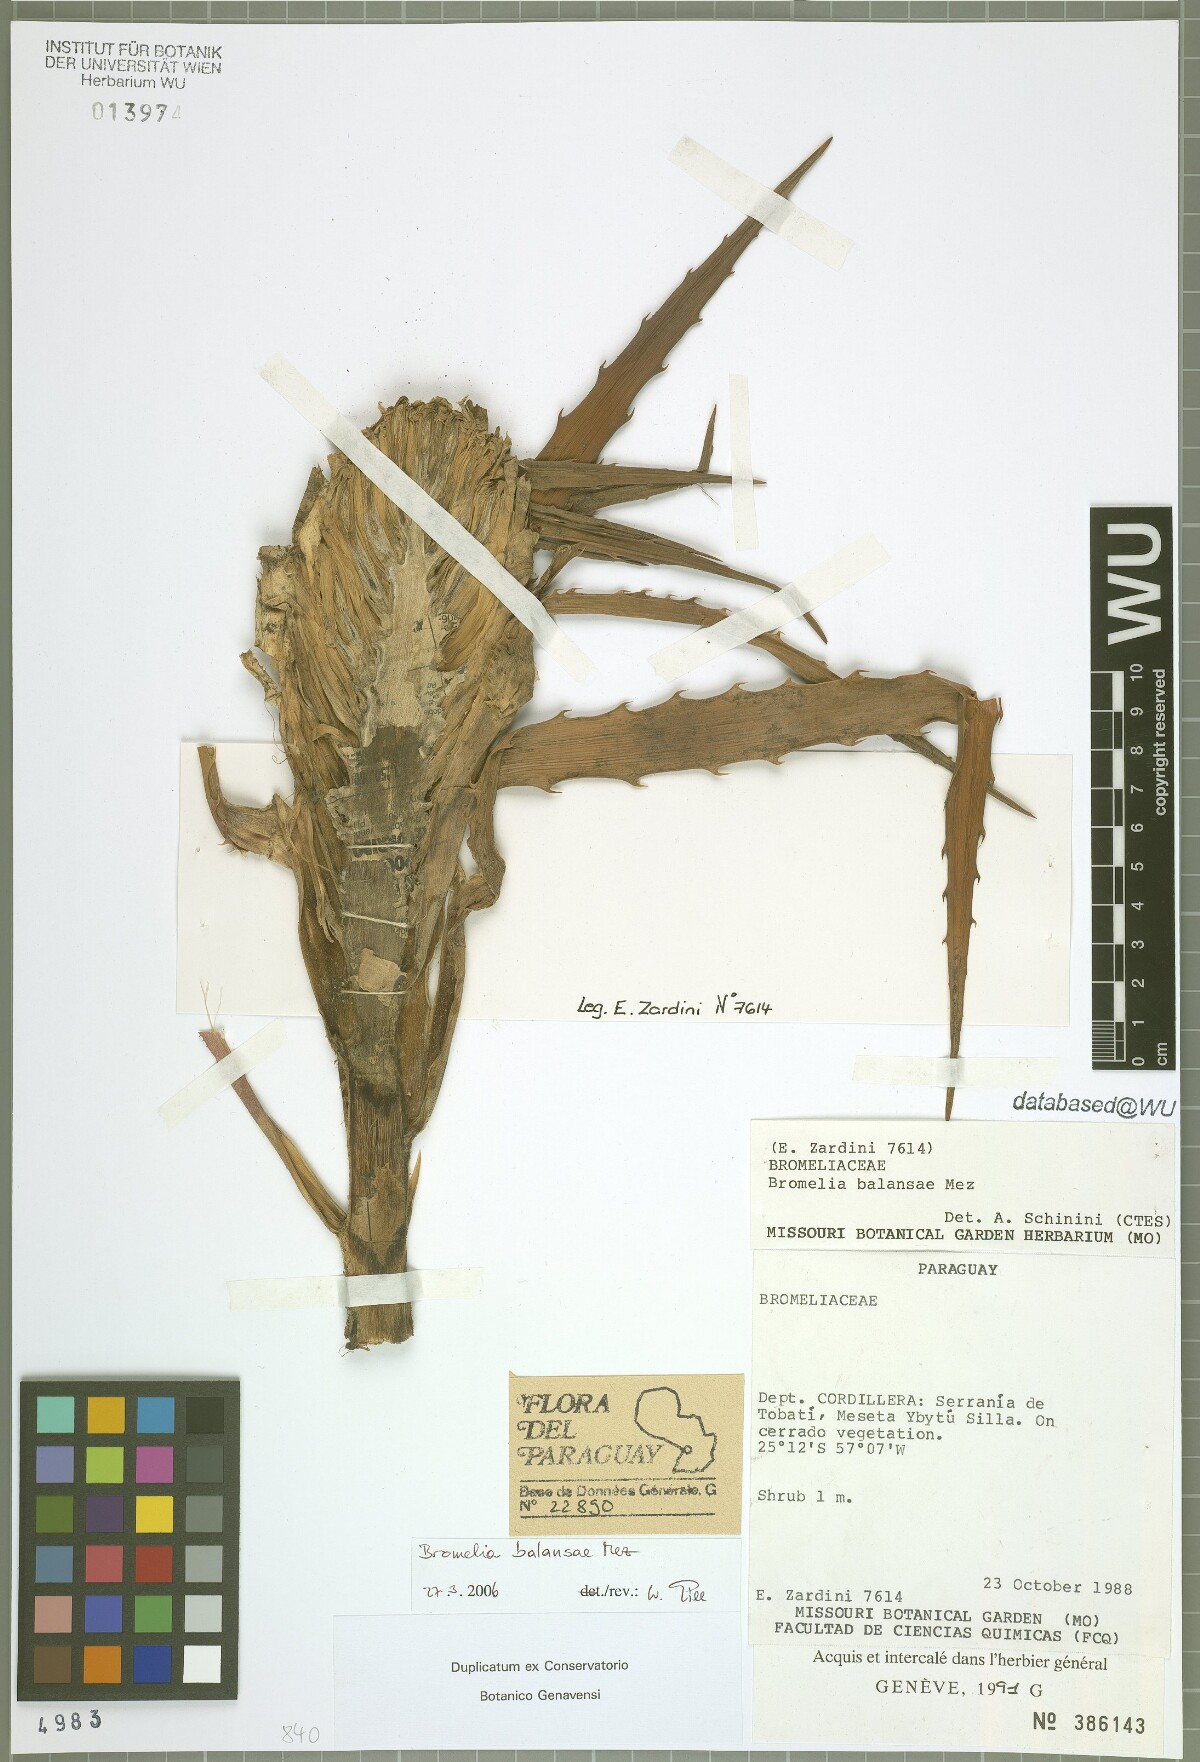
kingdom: Plantae
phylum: Tracheophyta
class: Liliopsida
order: Poales
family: Bromeliaceae
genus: Bromelia
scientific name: Bromelia balansae
